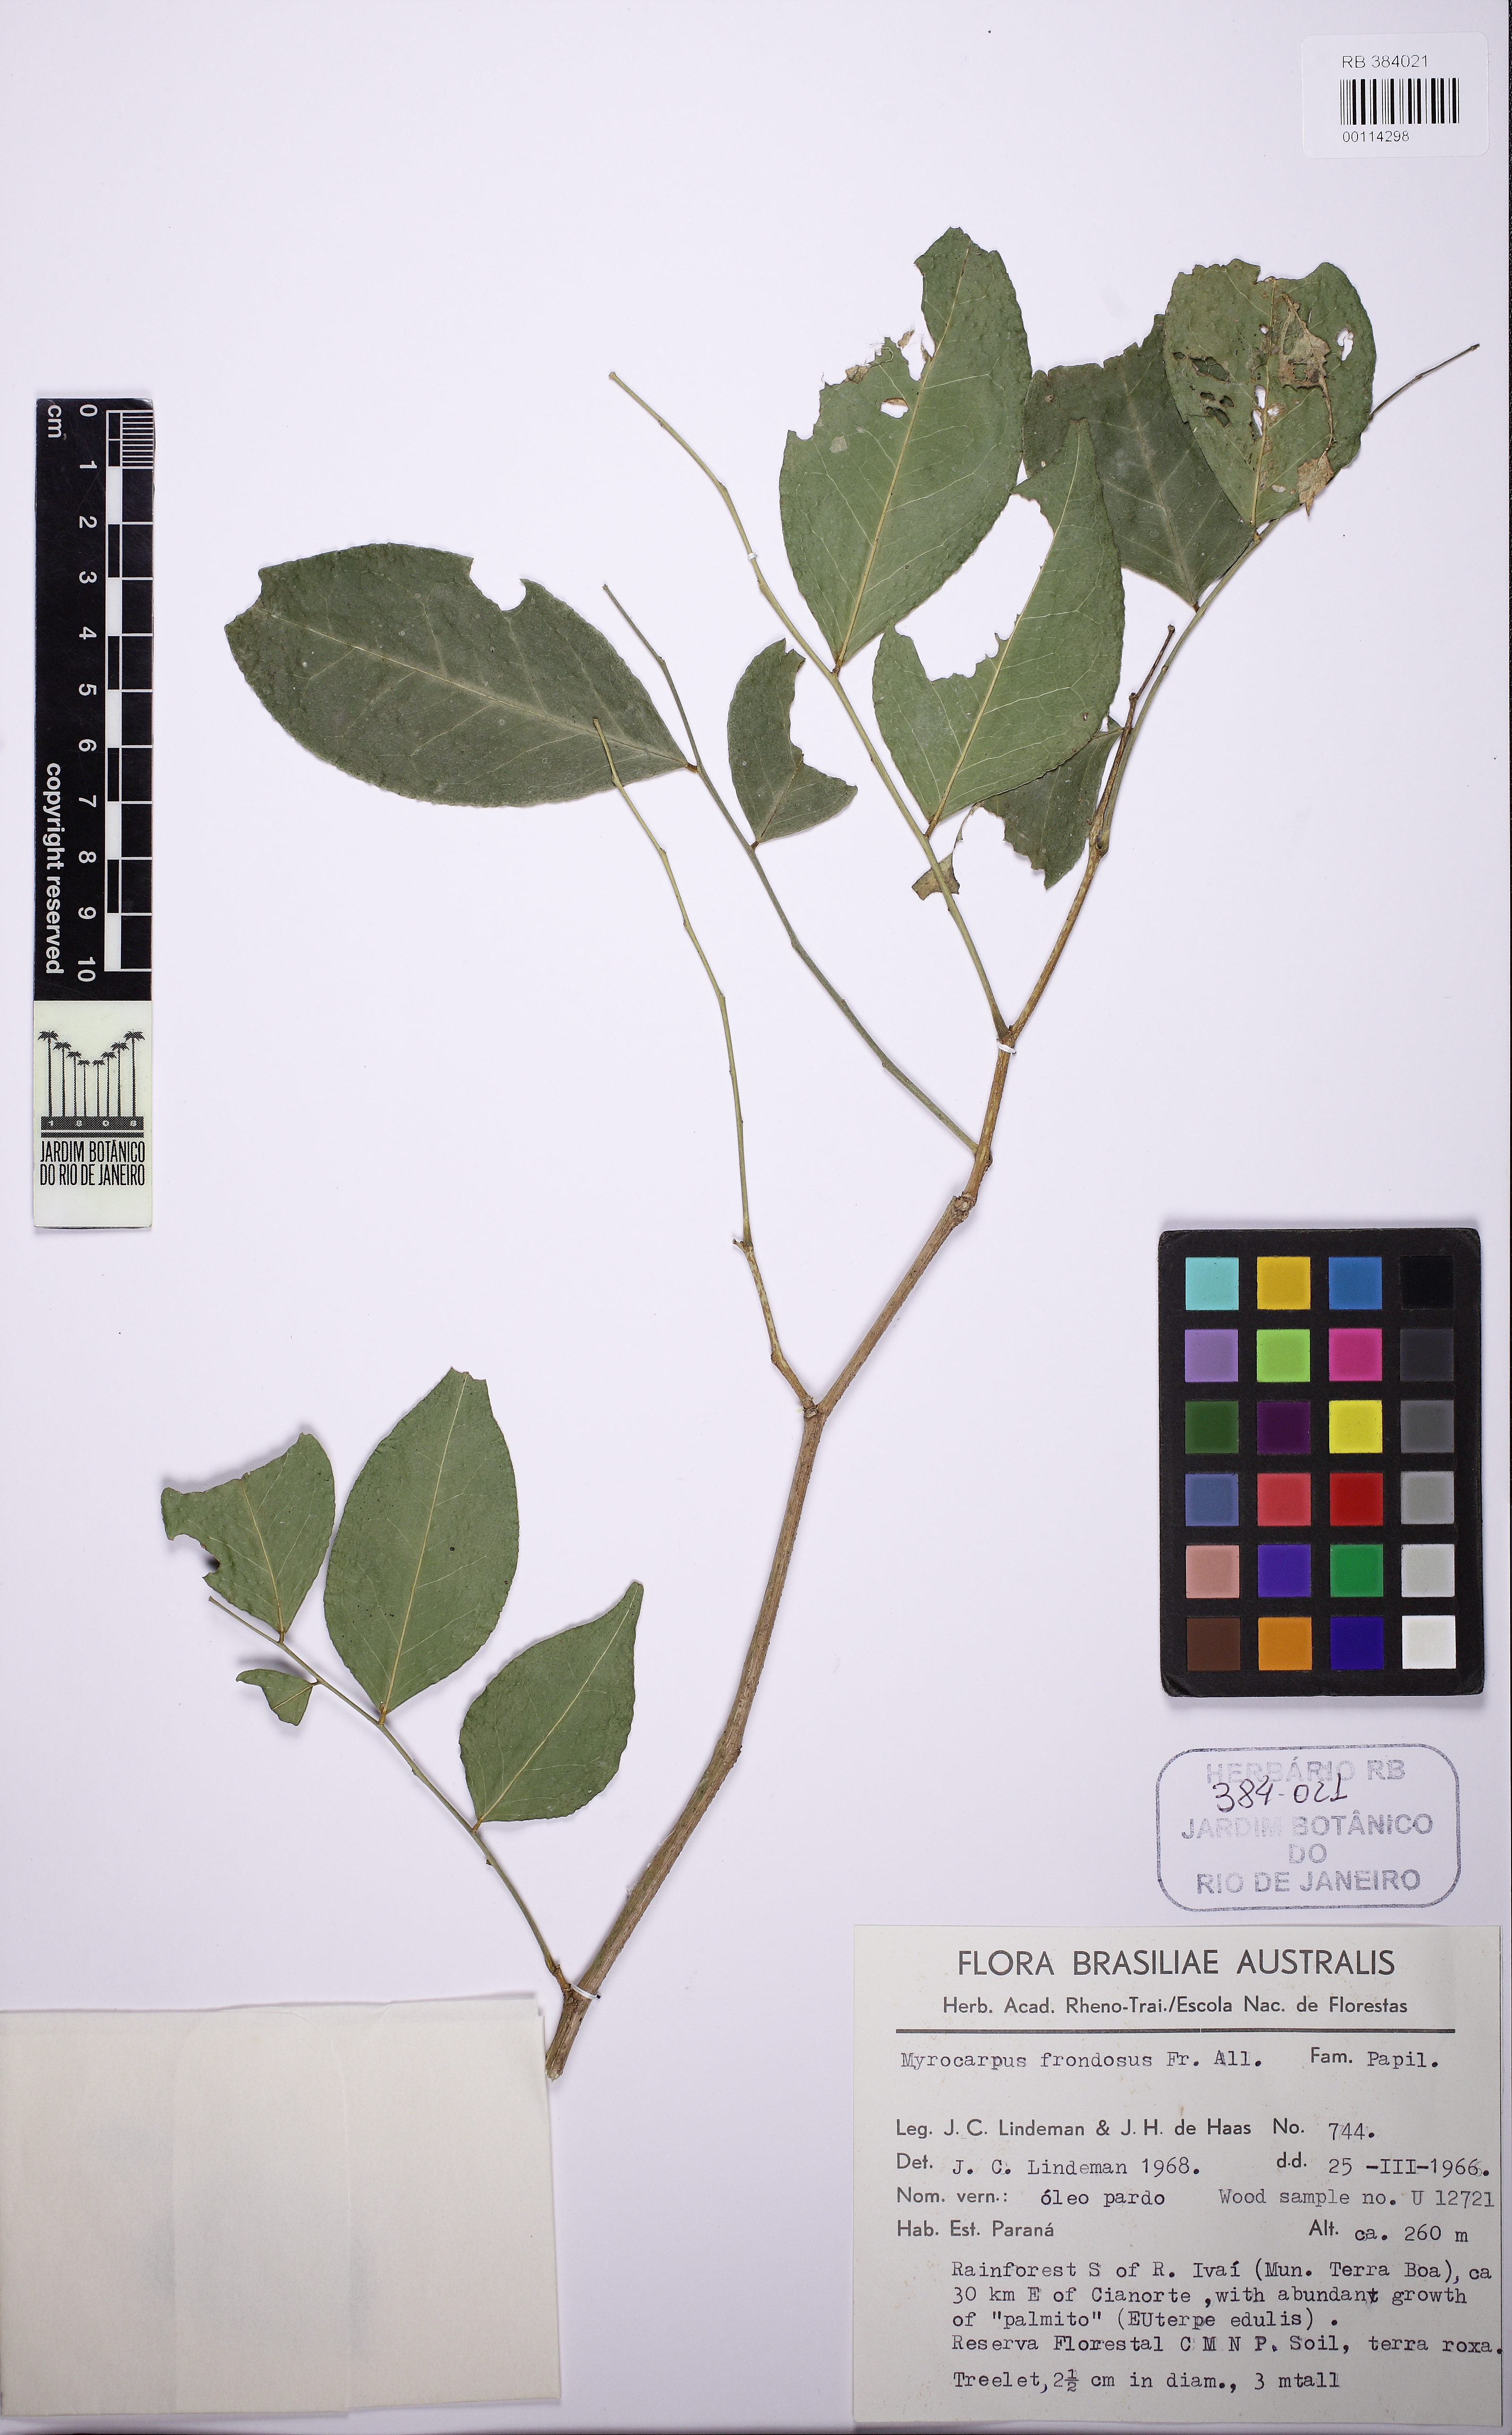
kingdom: Plantae
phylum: Tracheophyta
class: Magnoliopsida
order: Fabales
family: Fabaceae
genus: Myrocarpus
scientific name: Myrocarpus frondosus
